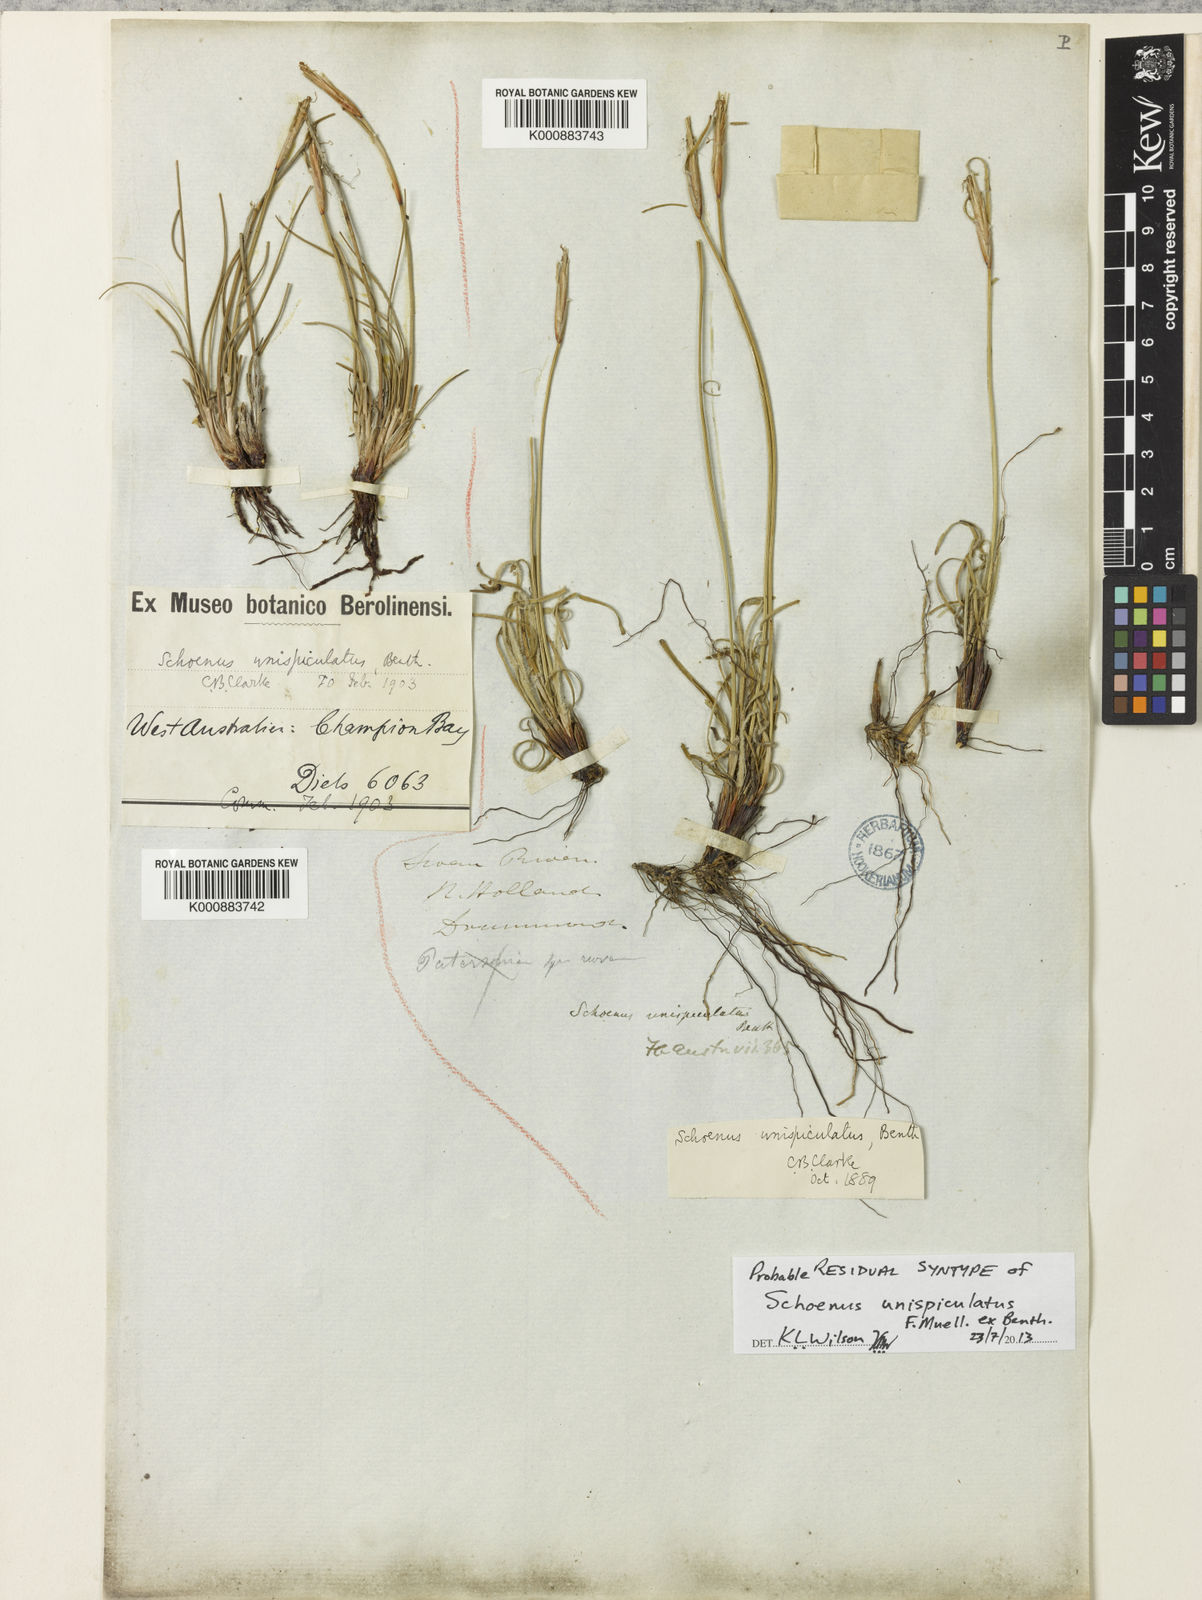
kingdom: Plantae
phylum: Tracheophyta
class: Liliopsida
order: Poales
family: Cyperaceae
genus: Schoenus
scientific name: Schoenus unispiculatus
